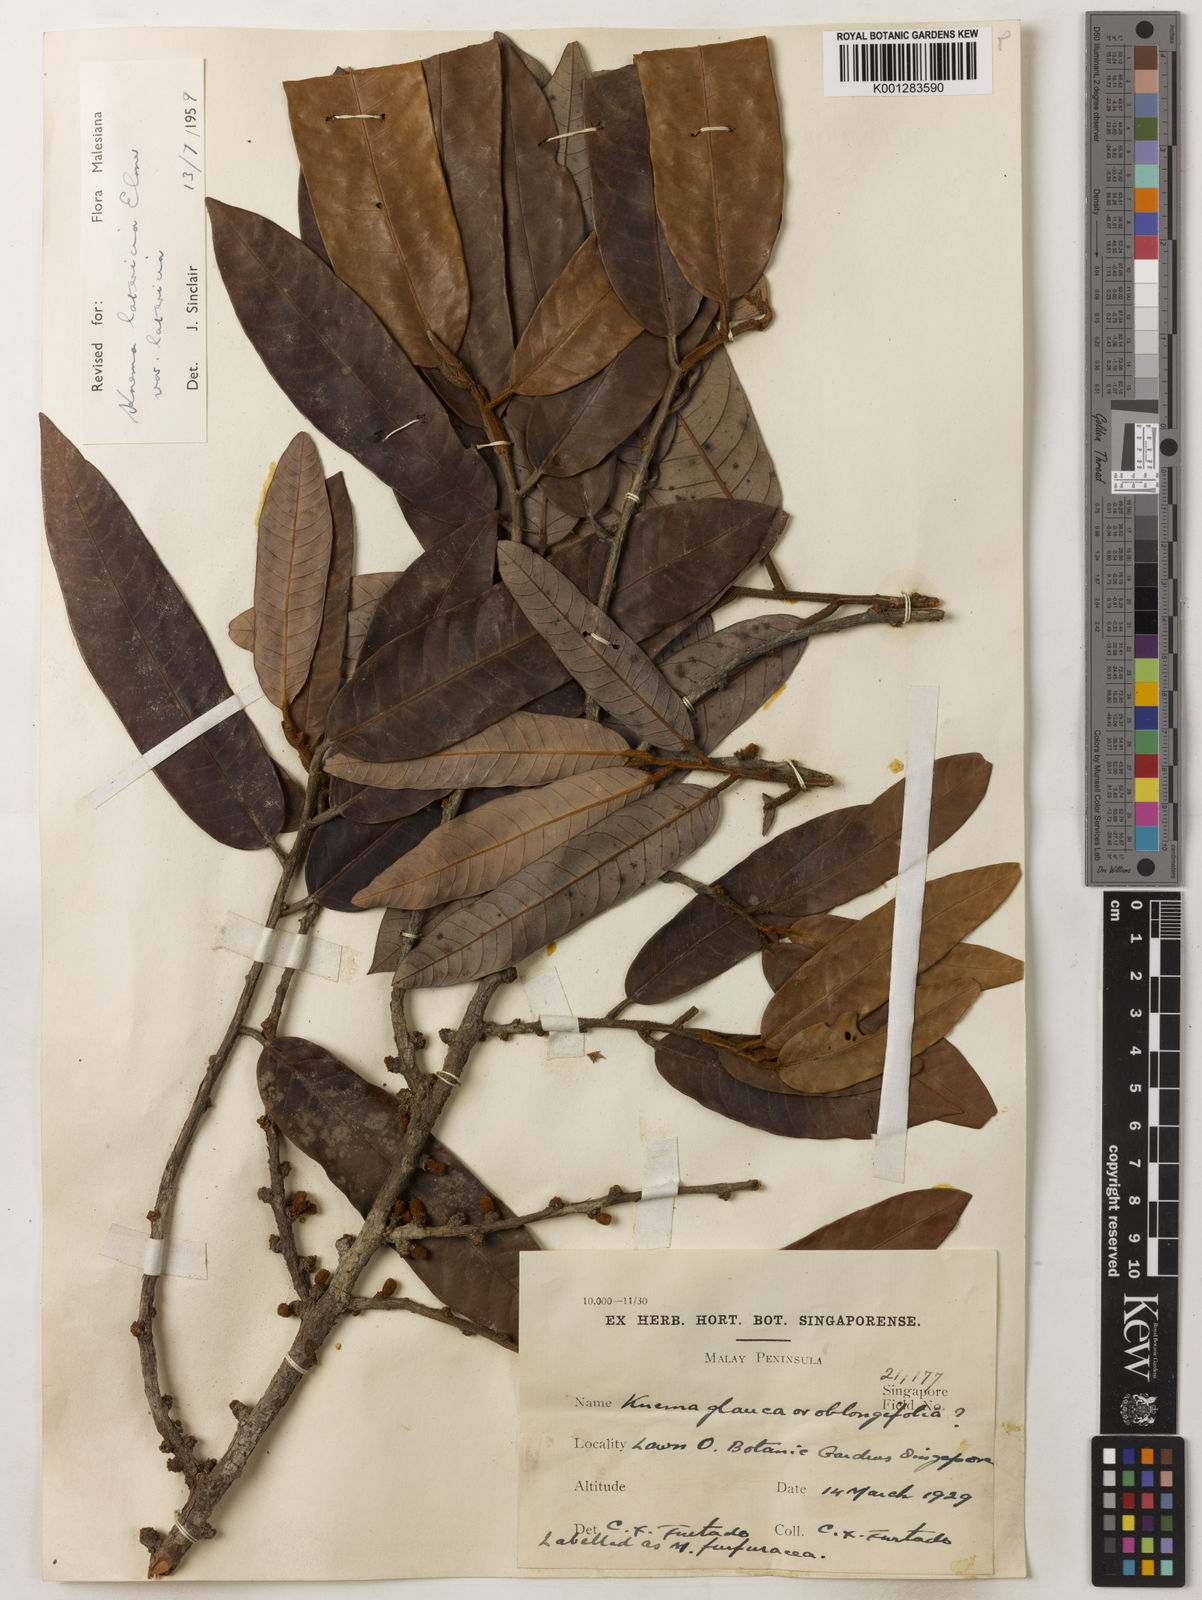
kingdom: Plantae
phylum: Tracheophyta
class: Magnoliopsida
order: Magnoliales
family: Myristicaceae
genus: Knema
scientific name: Knema latericia
